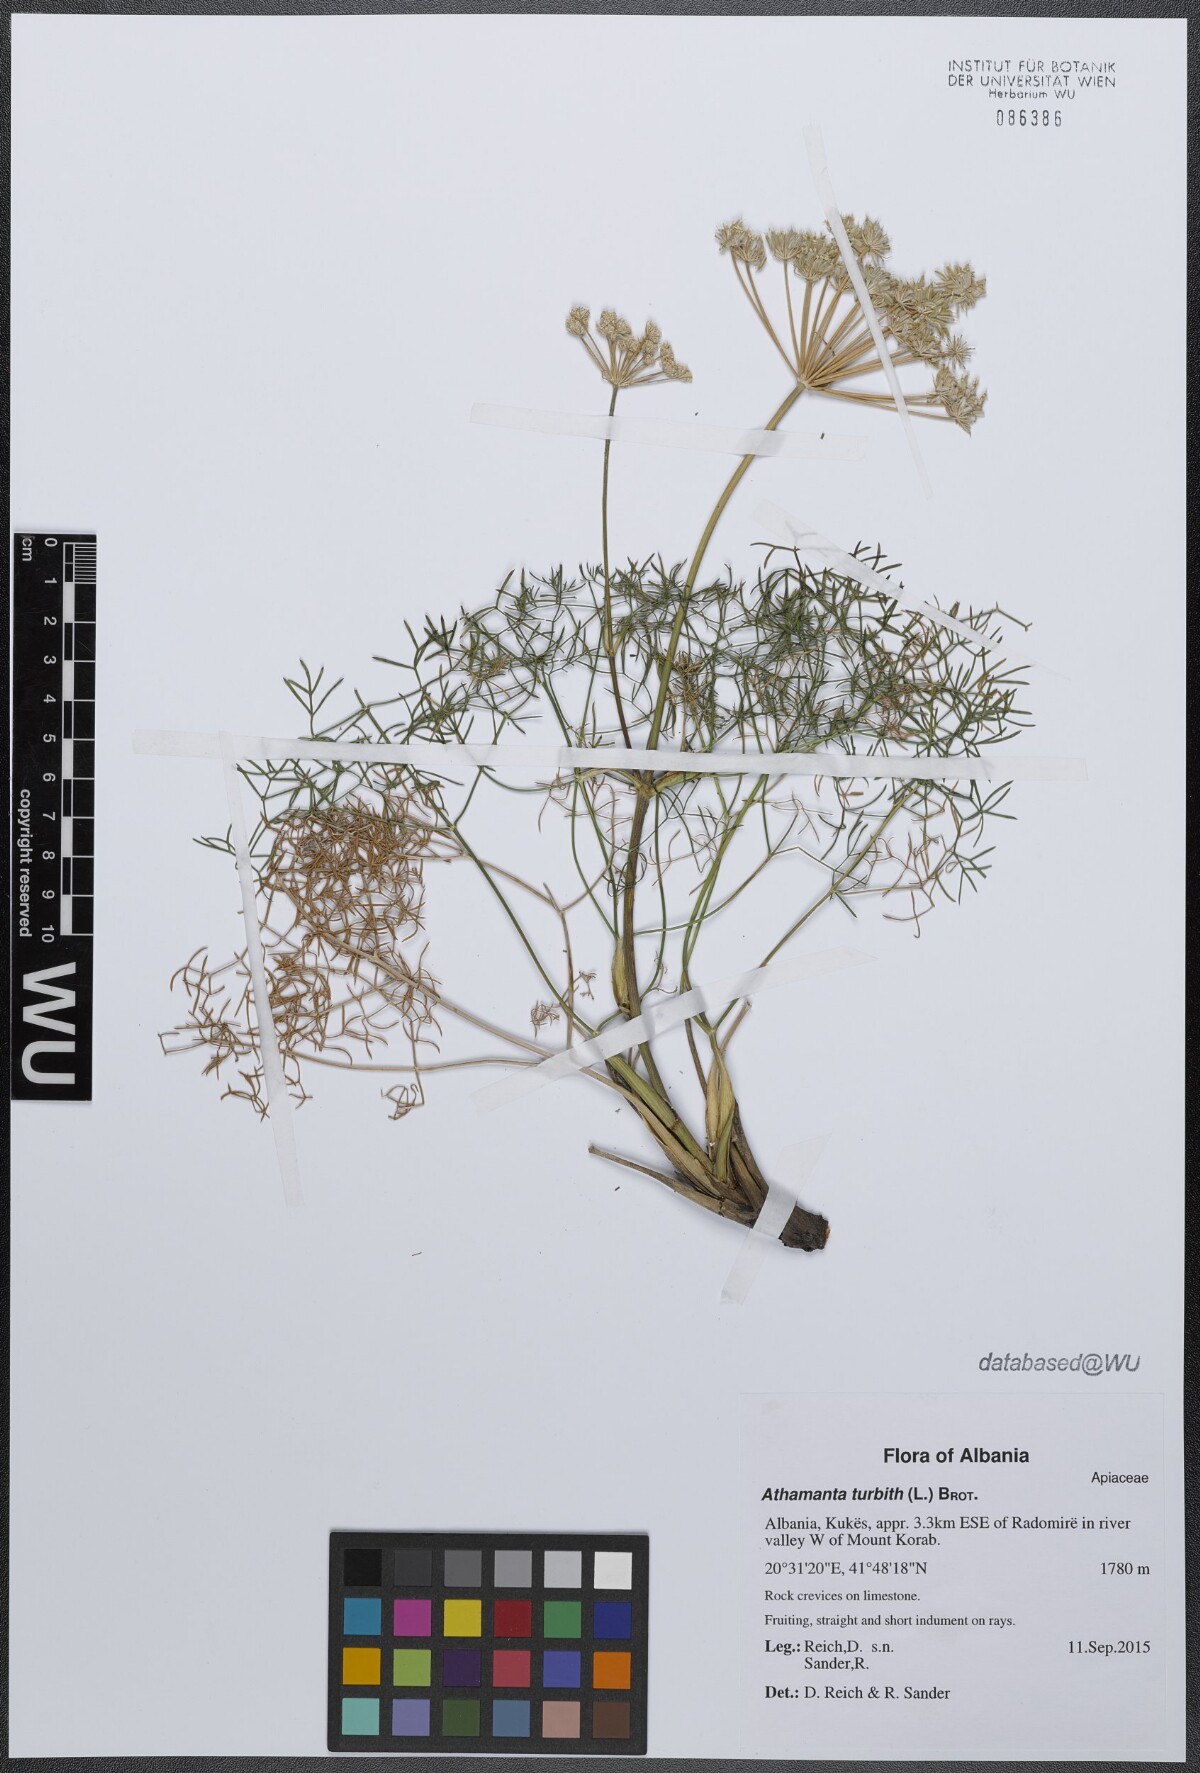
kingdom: Plantae
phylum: Tracheophyta
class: Magnoliopsida
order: Apiales
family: Apiaceae
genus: Athamanta
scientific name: Athamanta turbith
